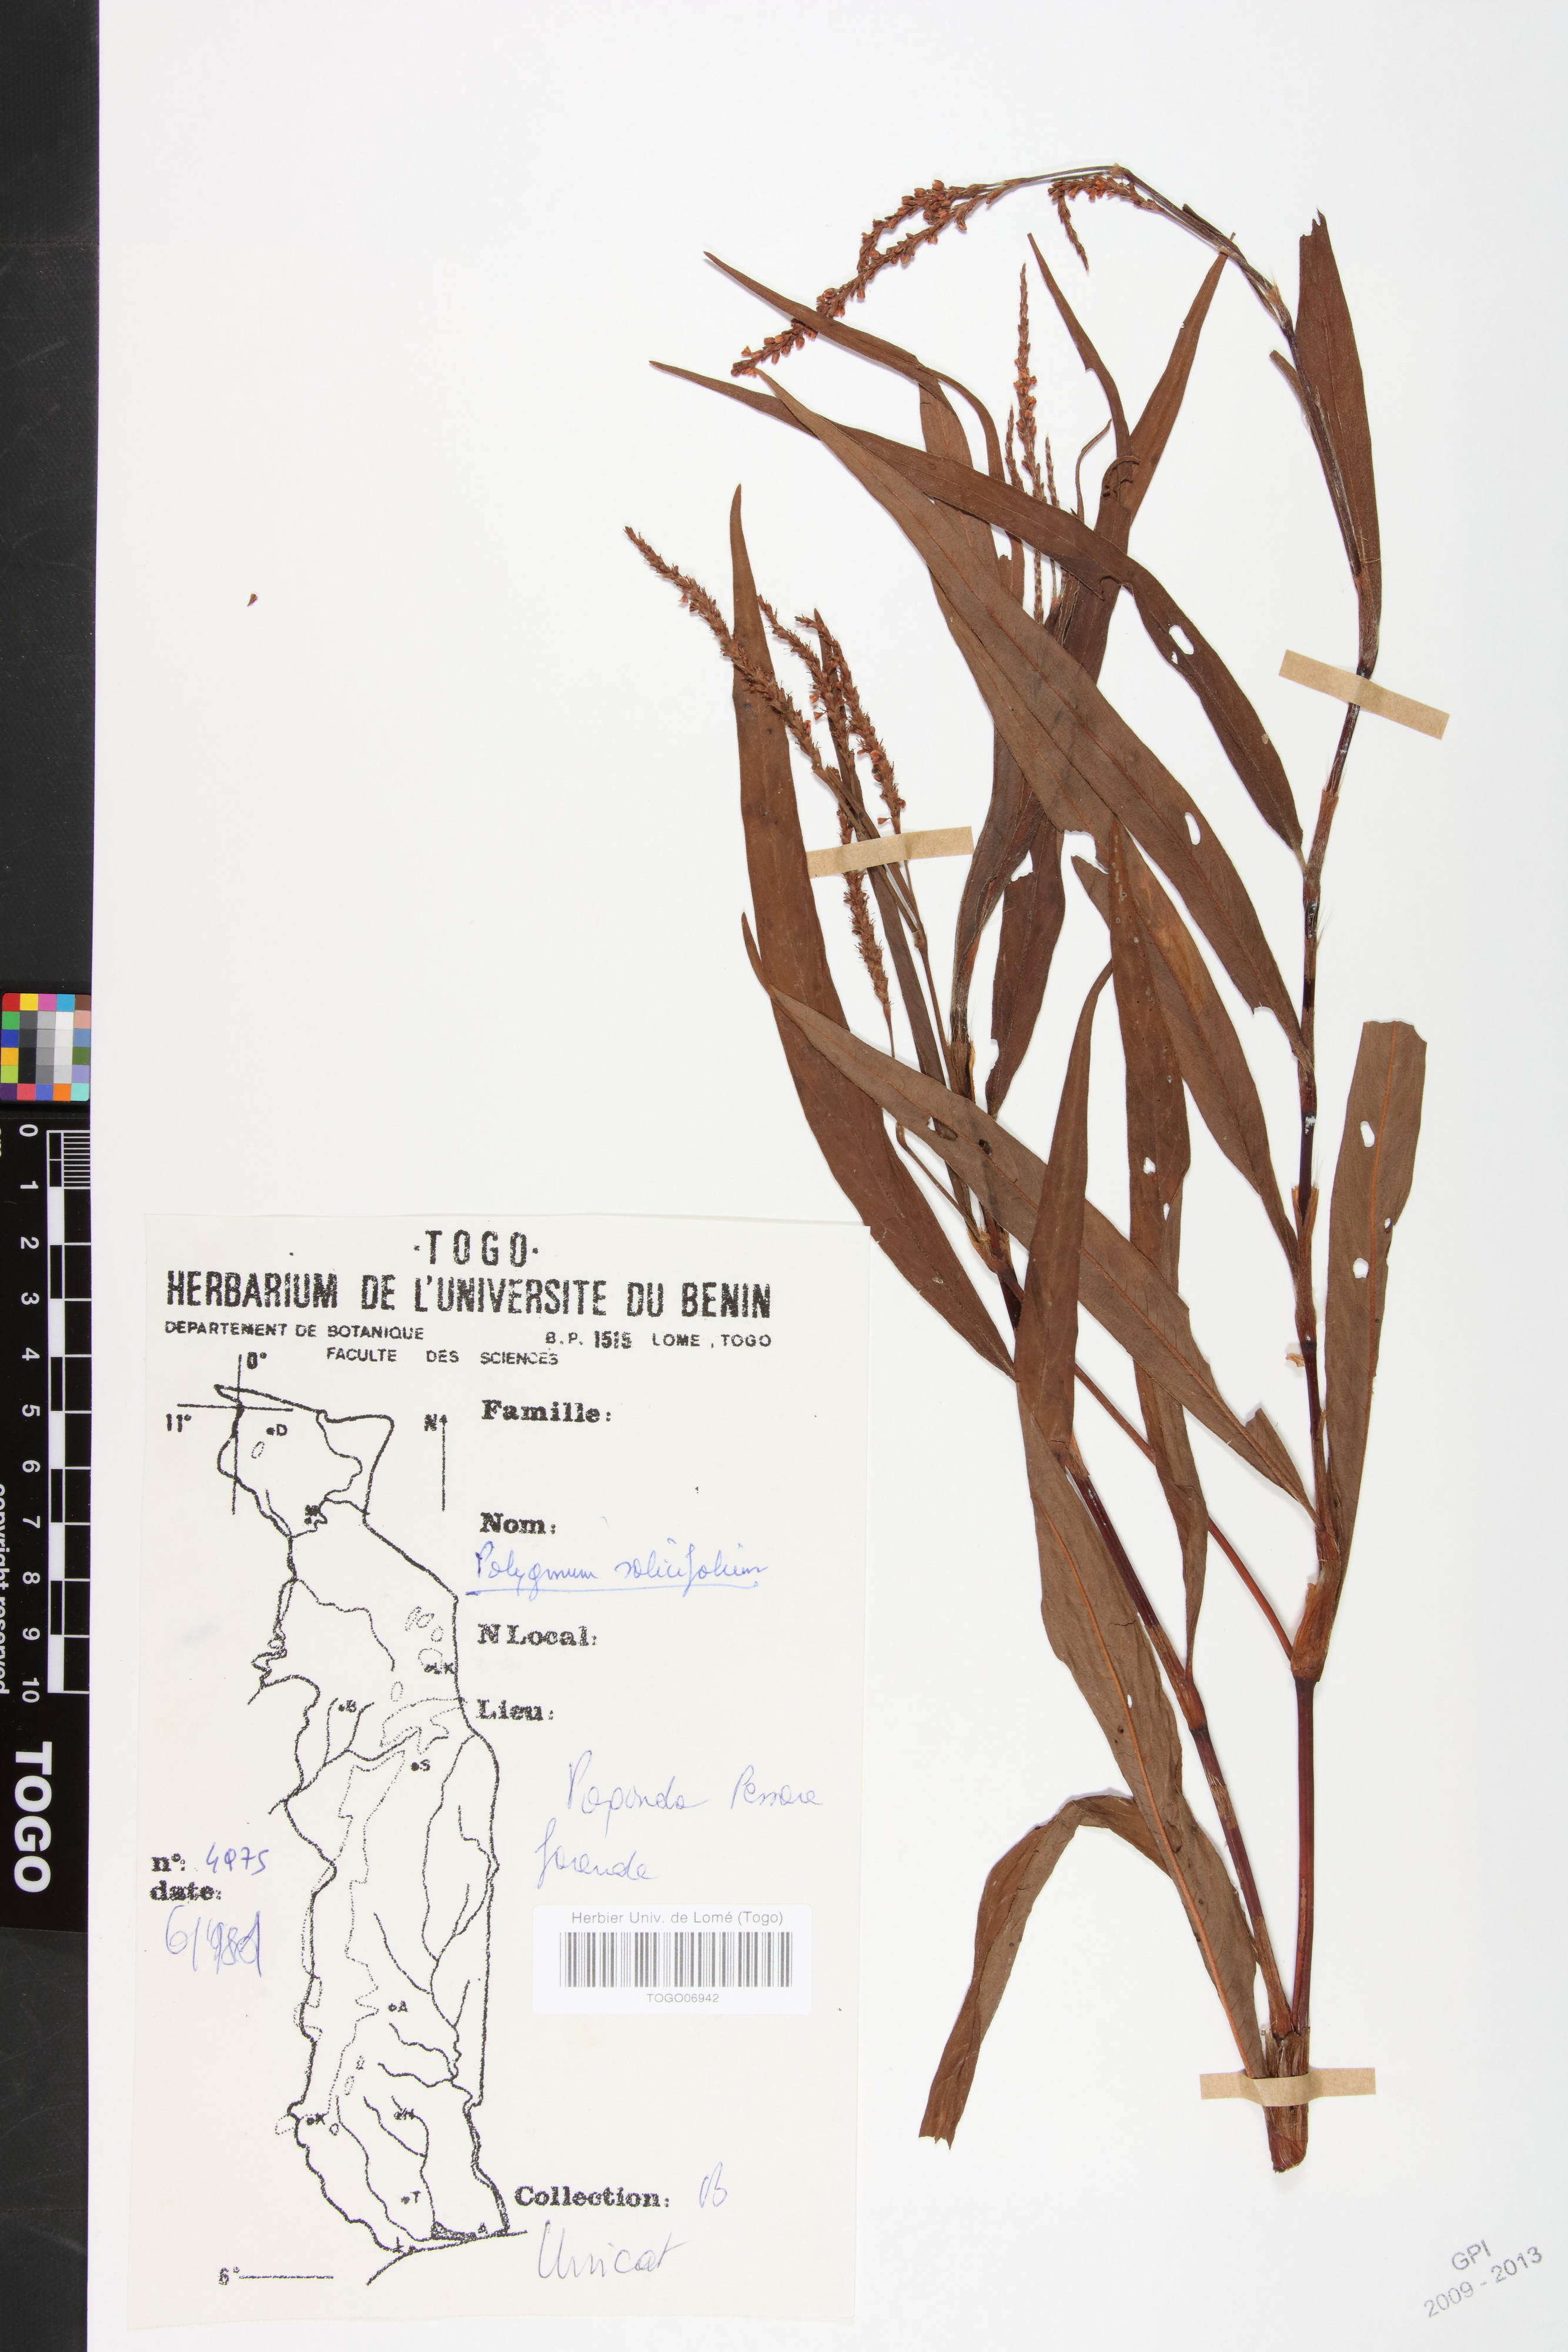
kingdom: Plantae
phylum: Tracheophyta
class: Magnoliopsida
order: Caryophyllales
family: Polygonaceae
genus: Persicaria
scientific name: Persicaria salicifolia
